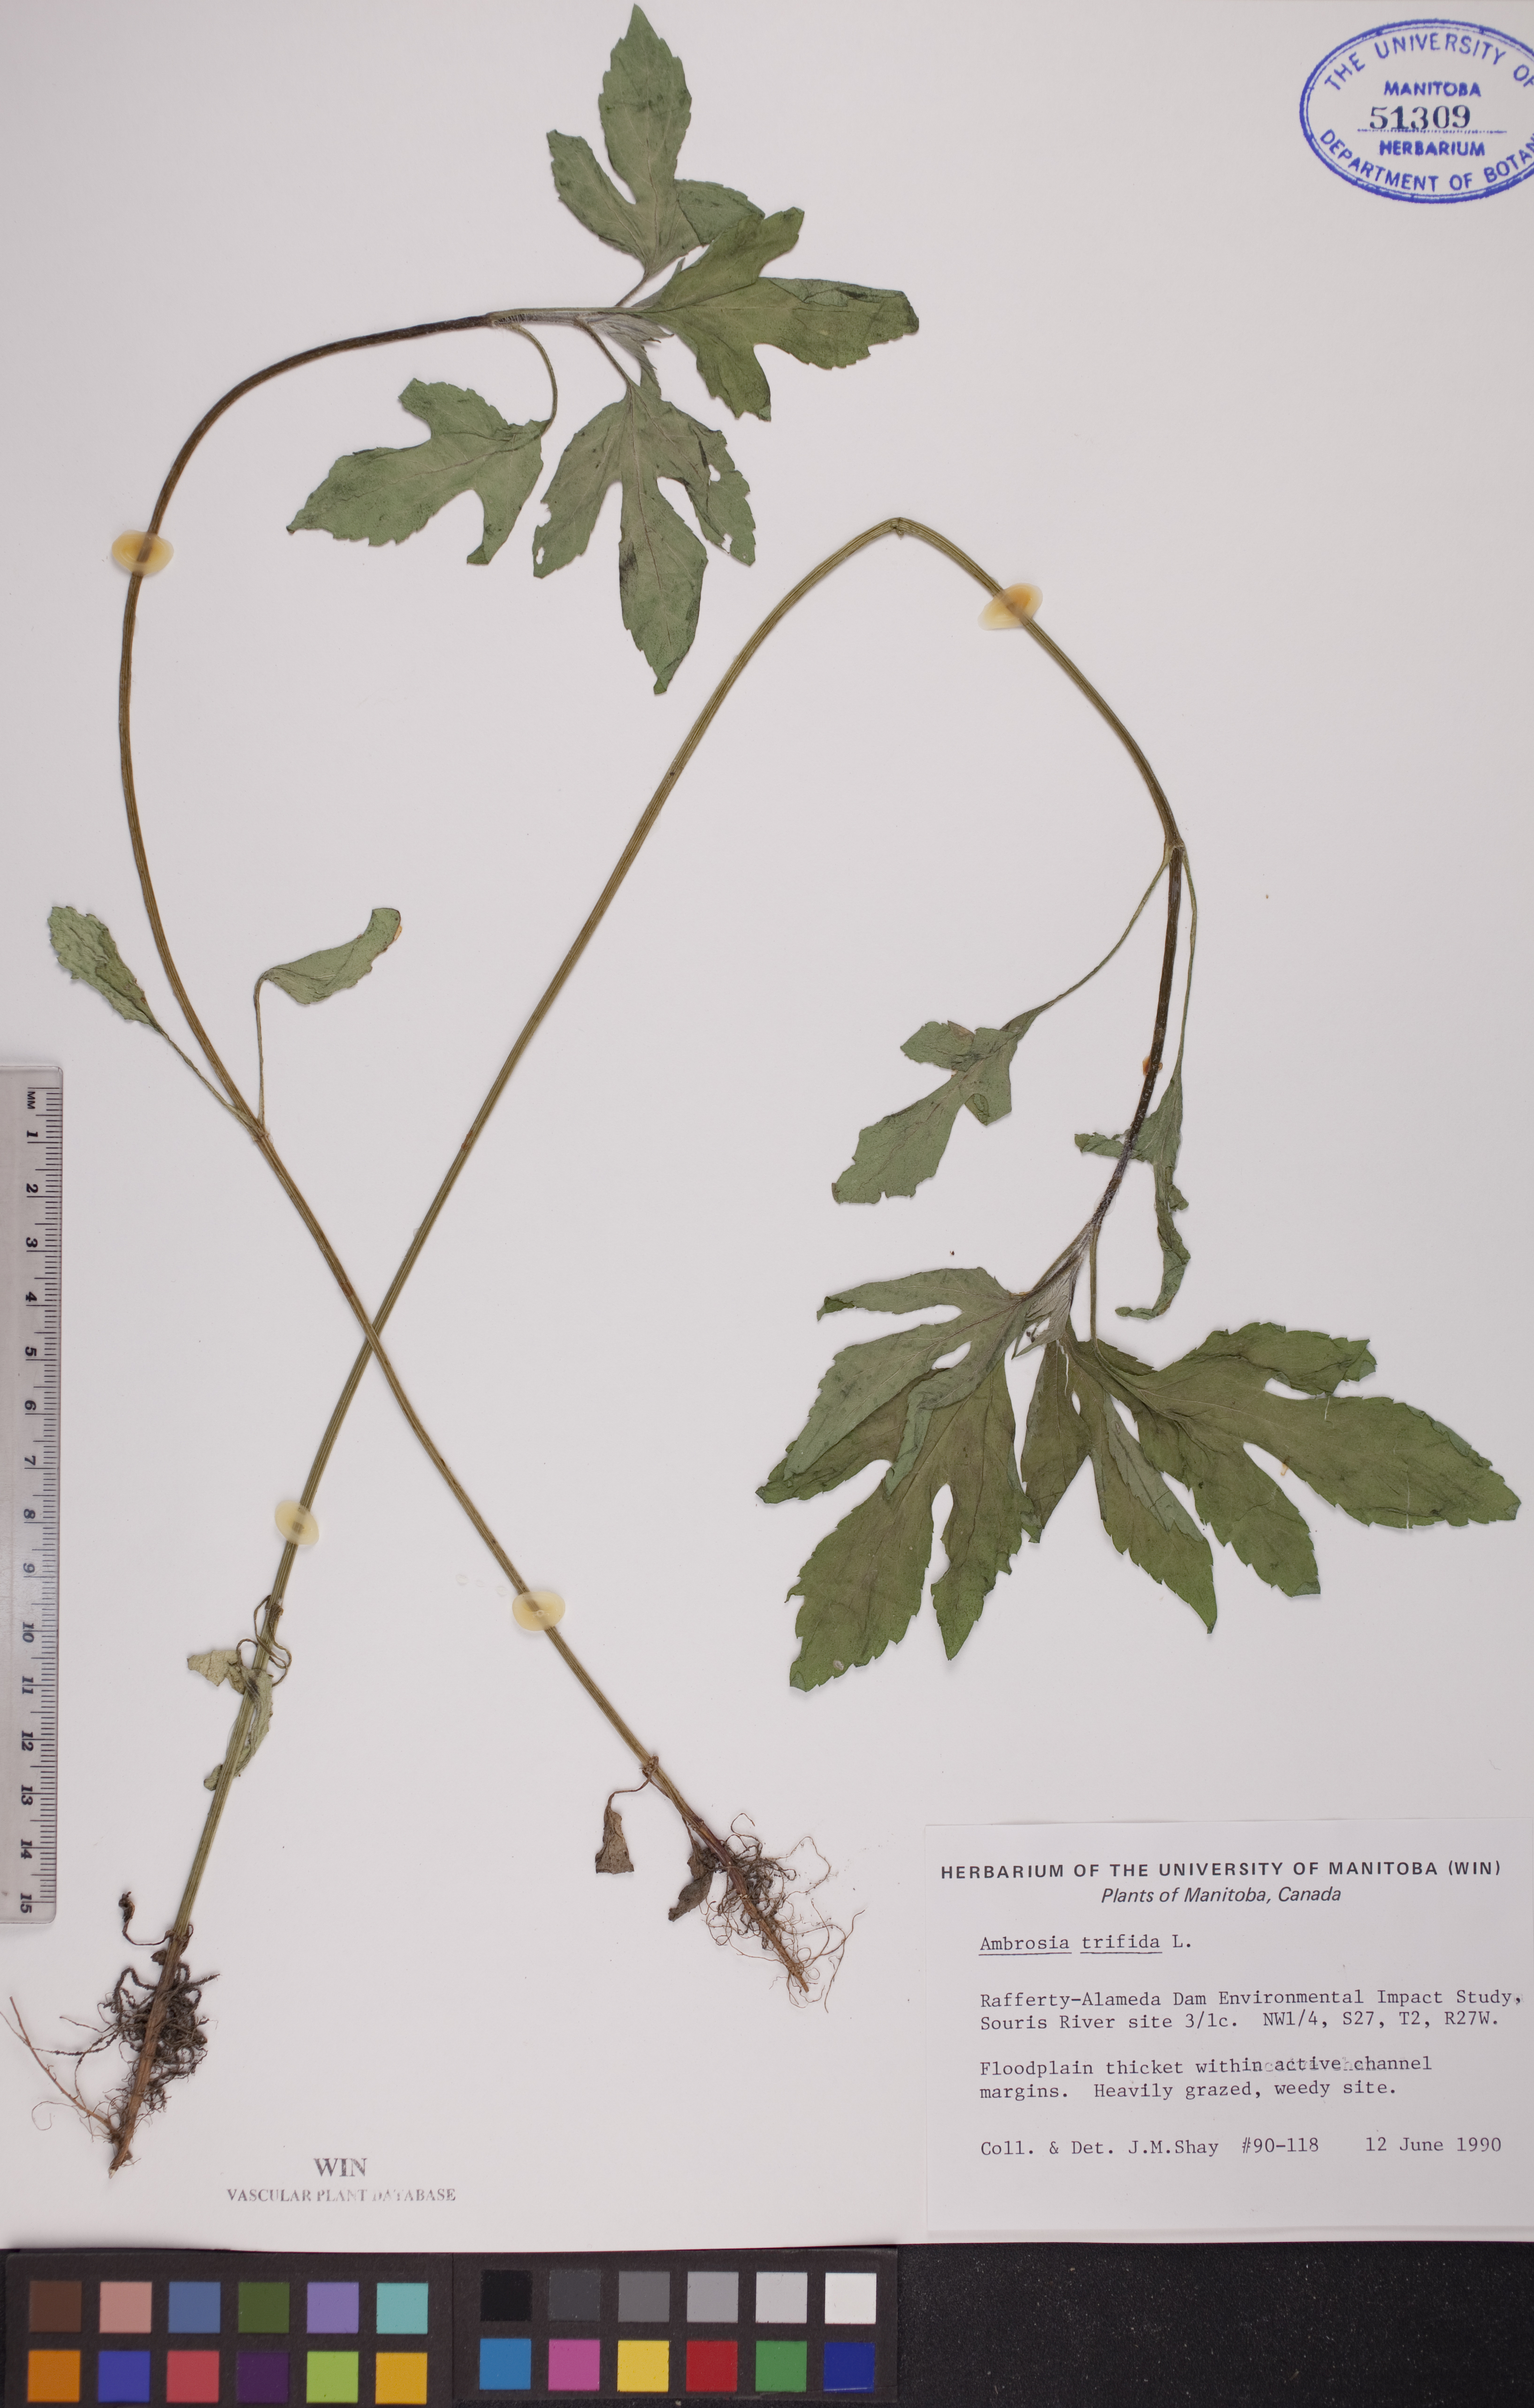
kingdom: Plantae
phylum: Tracheophyta
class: Magnoliopsida
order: Asterales
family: Asteraceae
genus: Ambrosia
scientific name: Ambrosia trifida
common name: Giant ragweed
